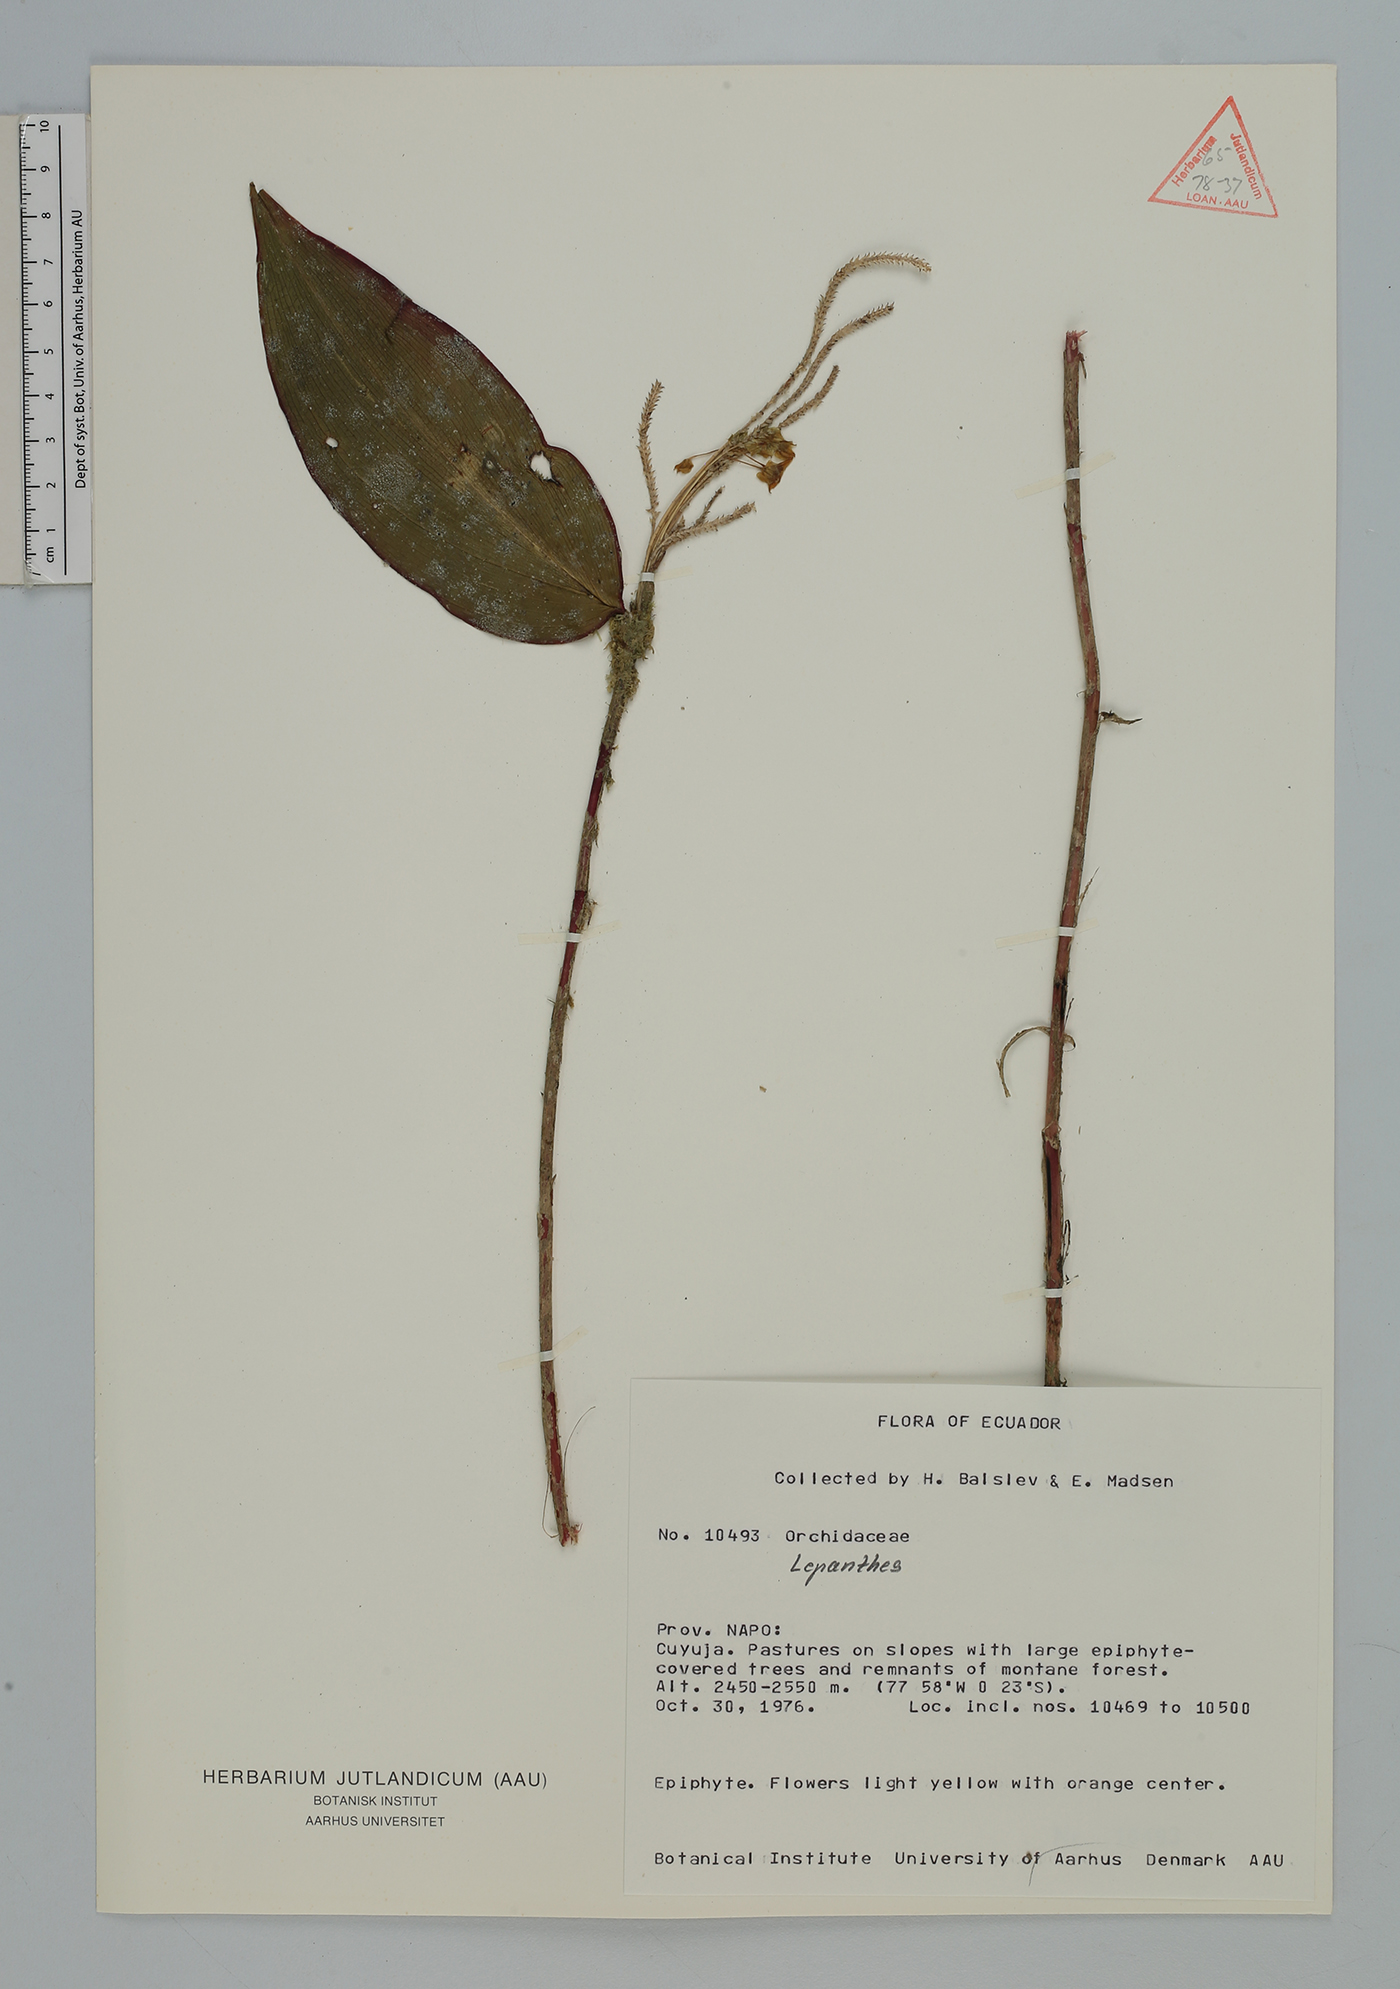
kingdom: Plantae
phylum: Tracheophyta
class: Liliopsida
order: Asparagales
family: Orchidaceae
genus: Lepanthes
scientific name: Lepanthes
